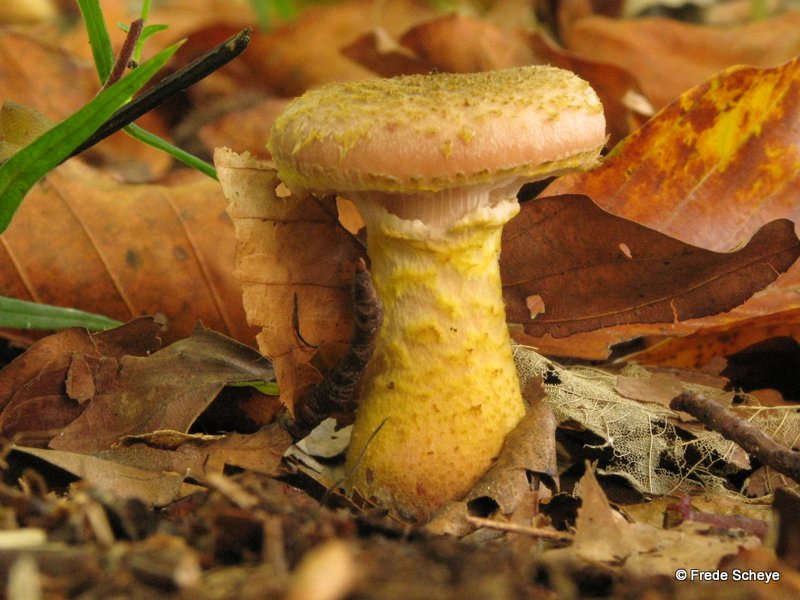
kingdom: Fungi
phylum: Basidiomycota
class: Agaricomycetes
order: Agaricales
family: Physalacriaceae
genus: Armillaria
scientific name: Armillaria lutea
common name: køllestokket honningsvamp
